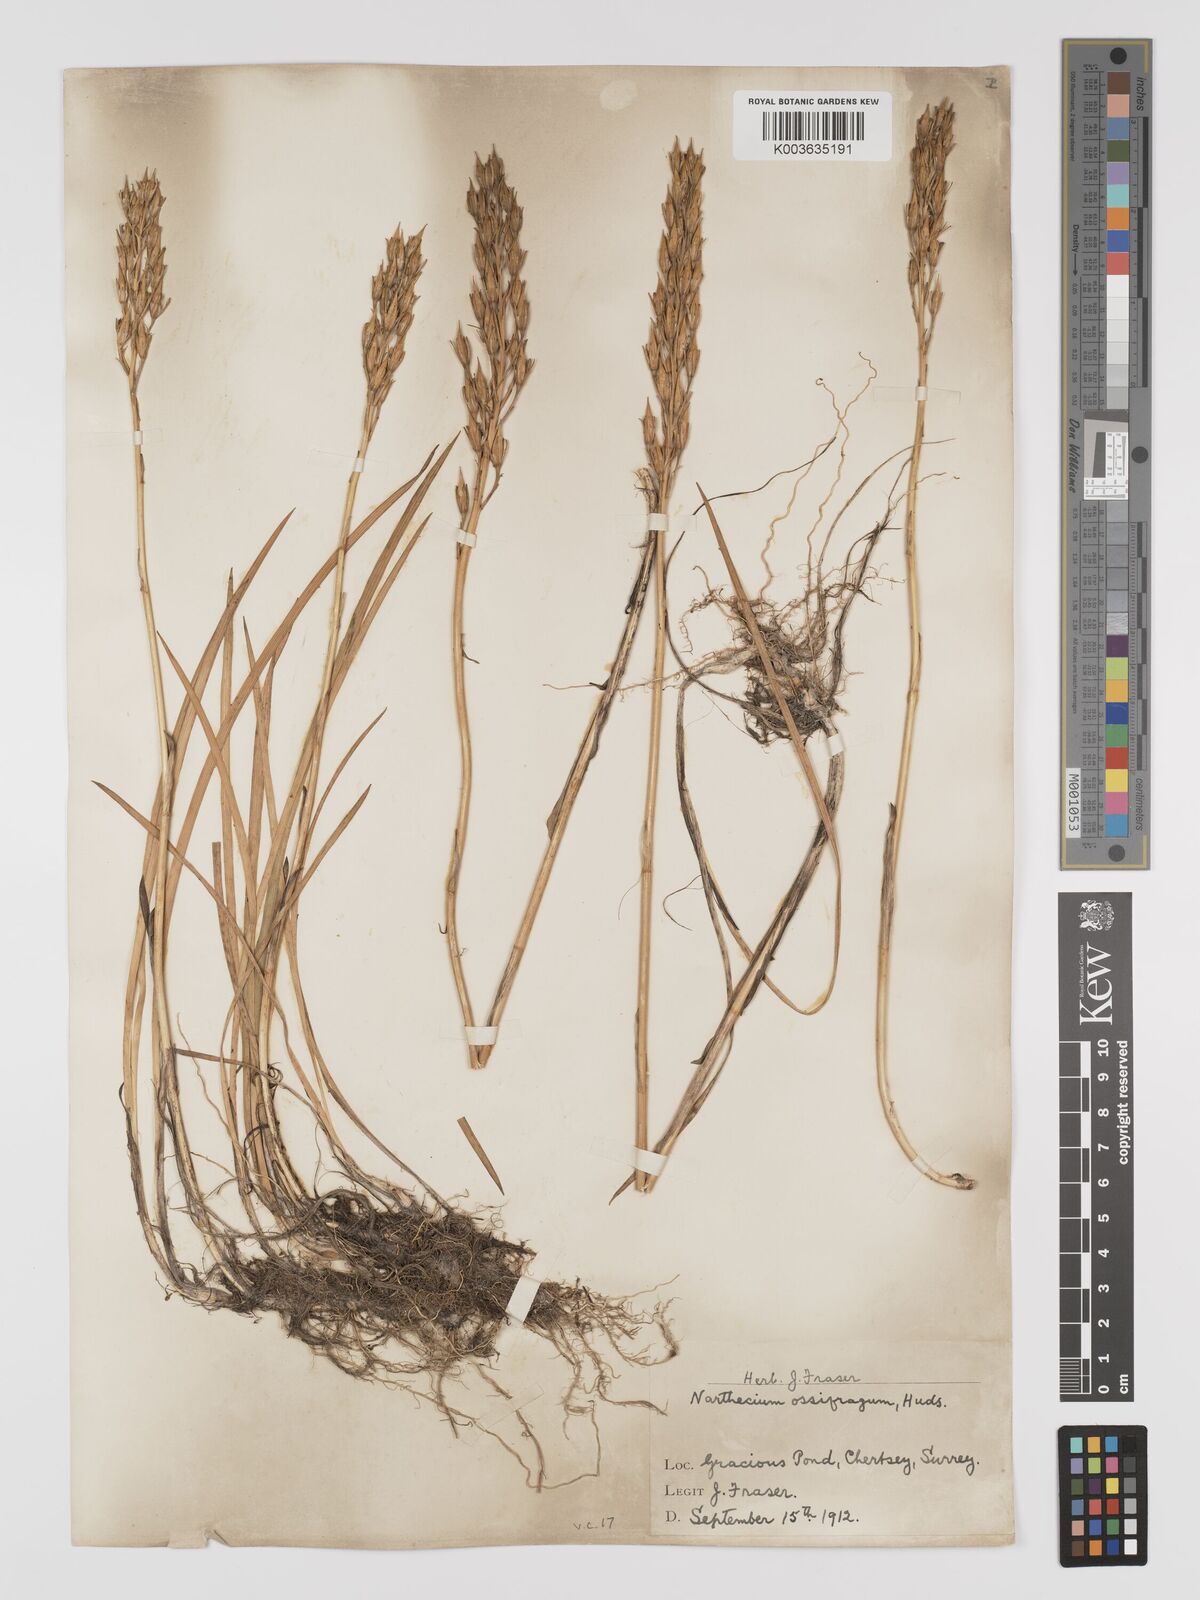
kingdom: Plantae
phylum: Tracheophyta
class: Liliopsida
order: Dioscoreales
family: Nartheciaceae
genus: Narthecium
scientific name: Narthecium
